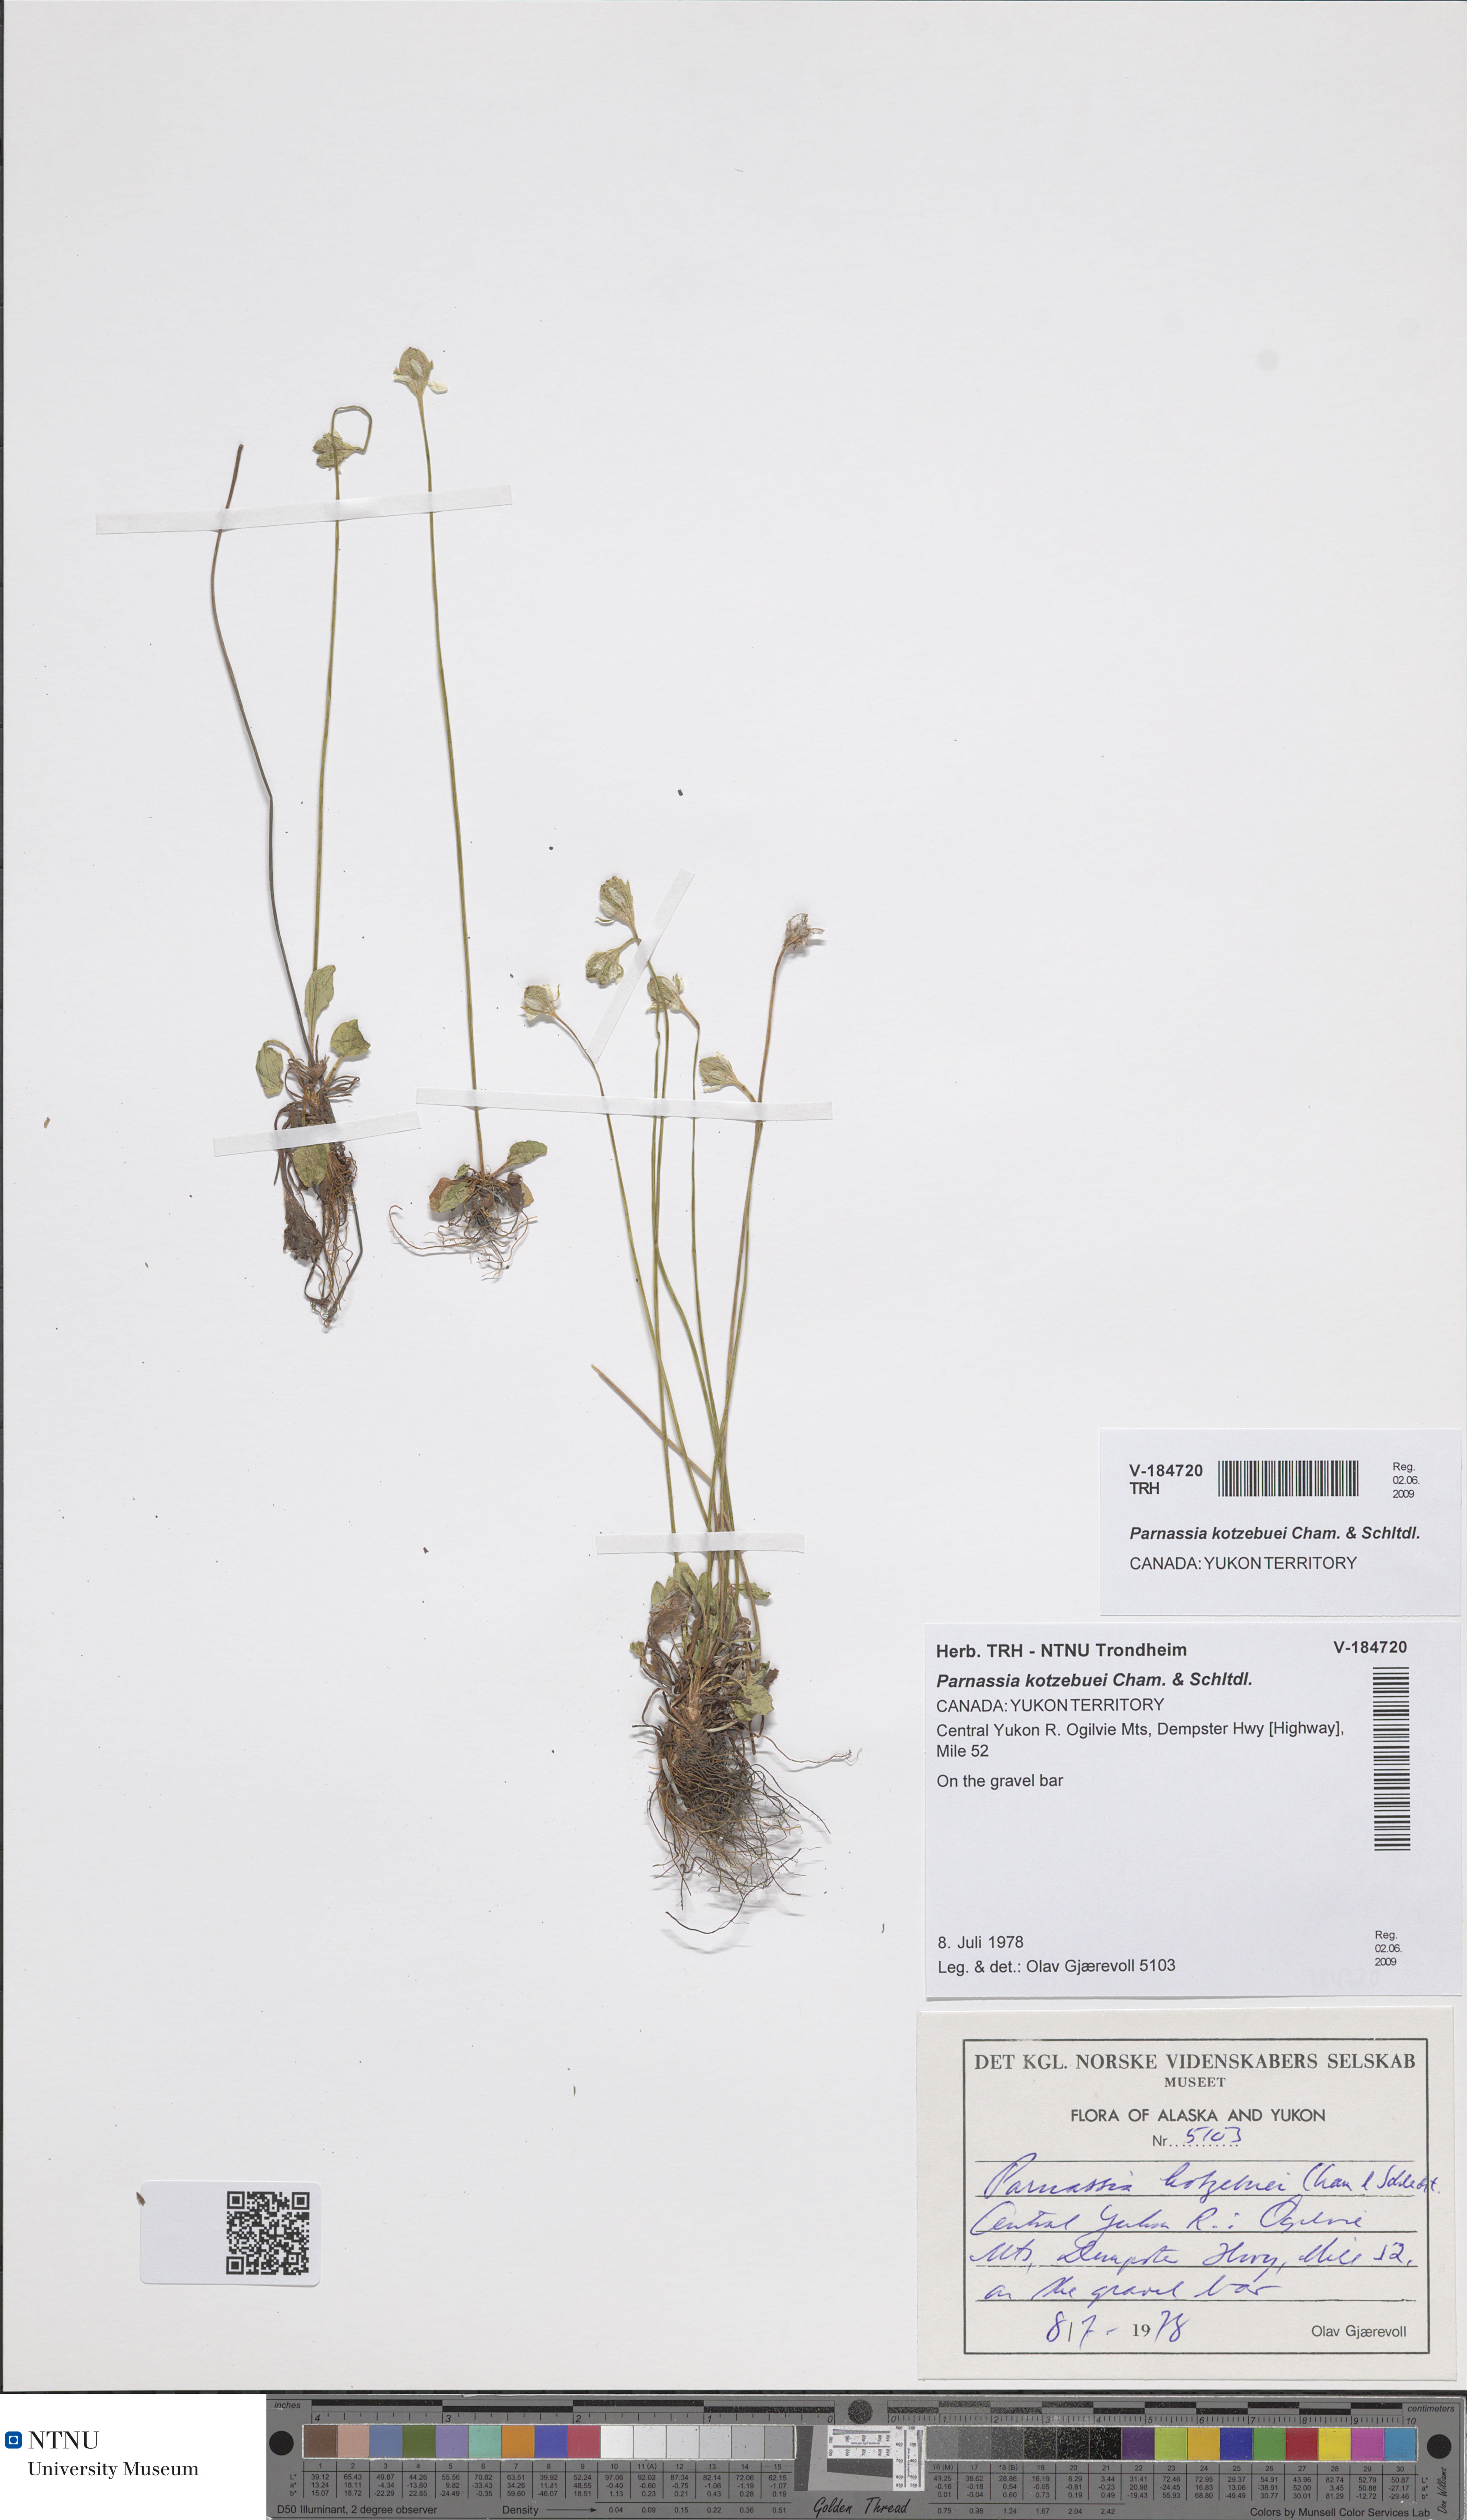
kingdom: Plantae
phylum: Tracheophyta
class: Magnoliopsida
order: Celastrales
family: Parnassiaceae
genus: Parnassia
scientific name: Parnassia kotzebuei
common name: Kotzebue's grass-of-parnassus
